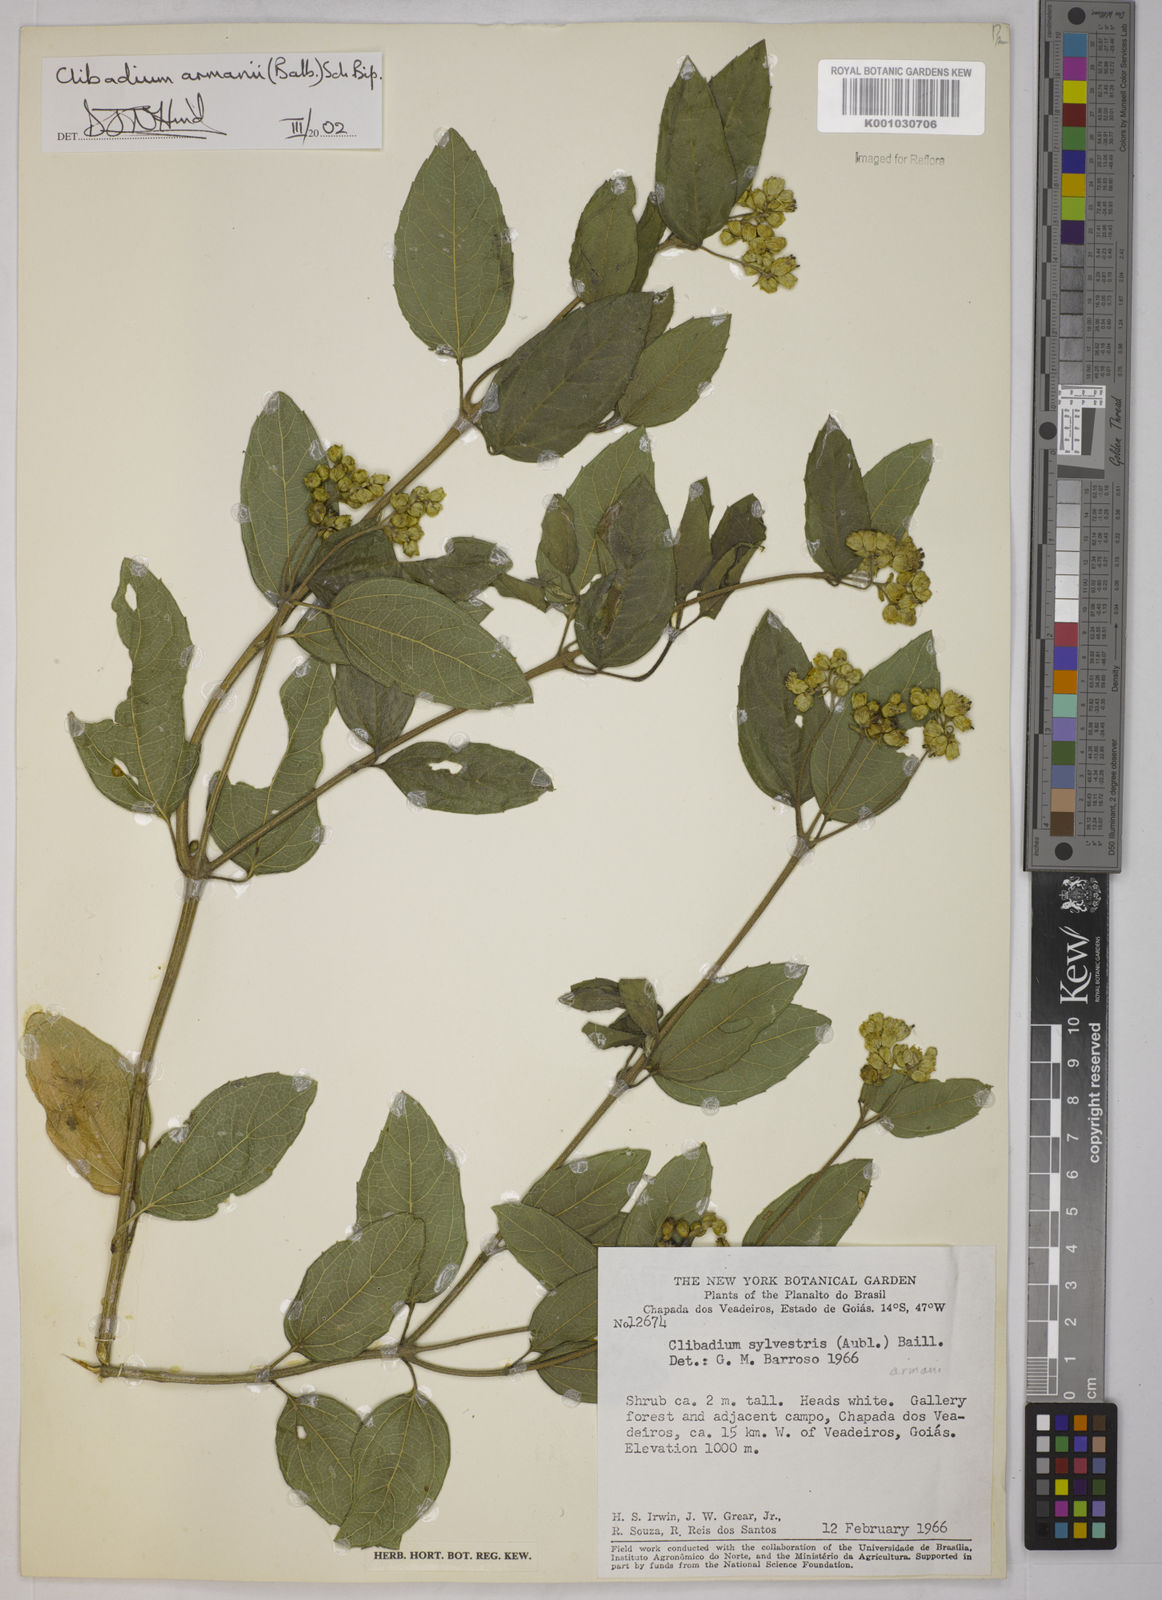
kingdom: Plantae
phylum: Tracheophyta
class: Magnoliopsida
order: Asterales
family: Asteraceae
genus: Clibadium
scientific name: Clibadium armanii
